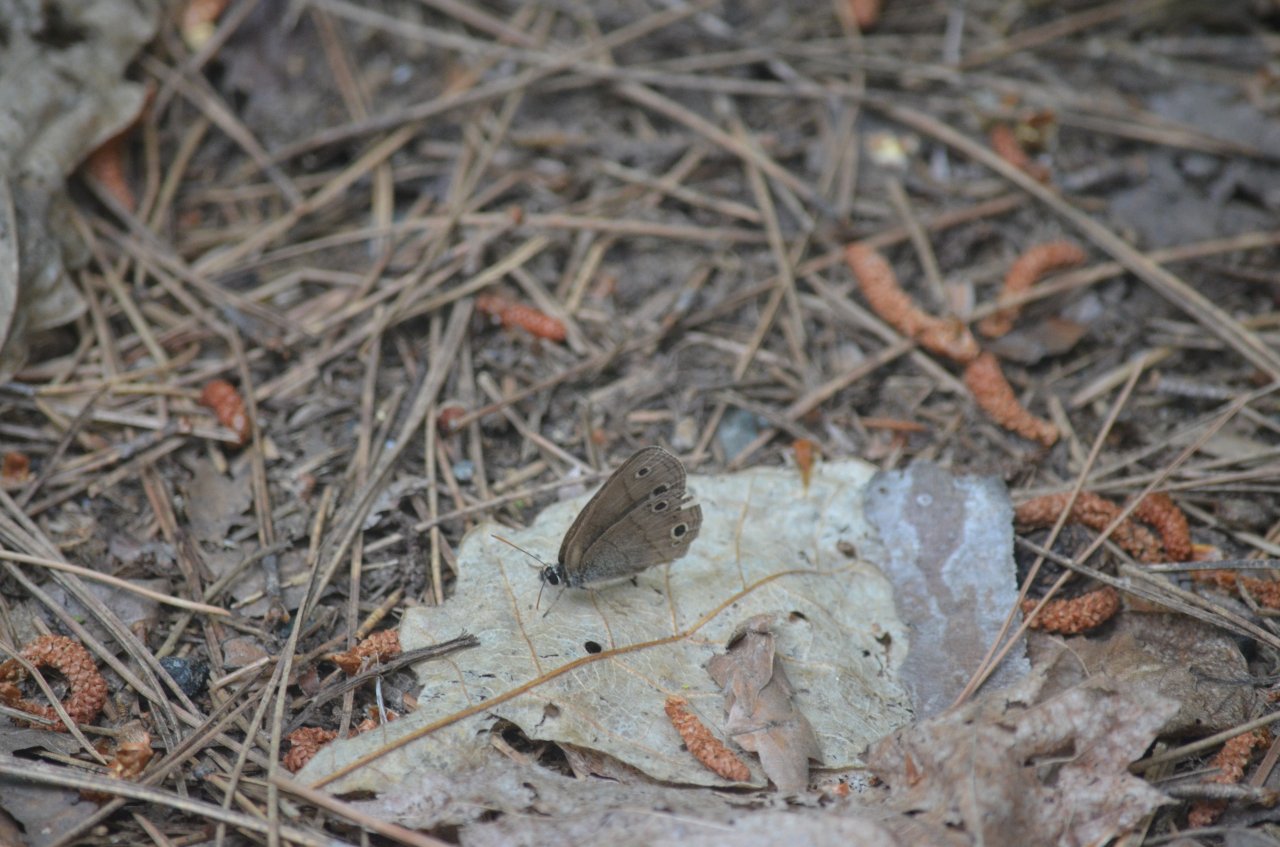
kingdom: Animalia
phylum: Arthropoda
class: Insecta
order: Lepidoptera
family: Nymphalidae
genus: Euptychia
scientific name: Euptychia cymela
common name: Little Wood Satyr
